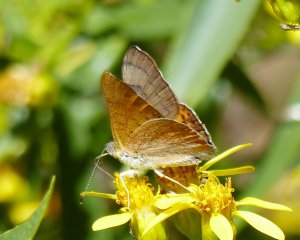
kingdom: Animalia
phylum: Arthropoda
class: Insecta
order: Lepidoptera
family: Lycaenidae
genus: Emesis
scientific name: Emesis zela
